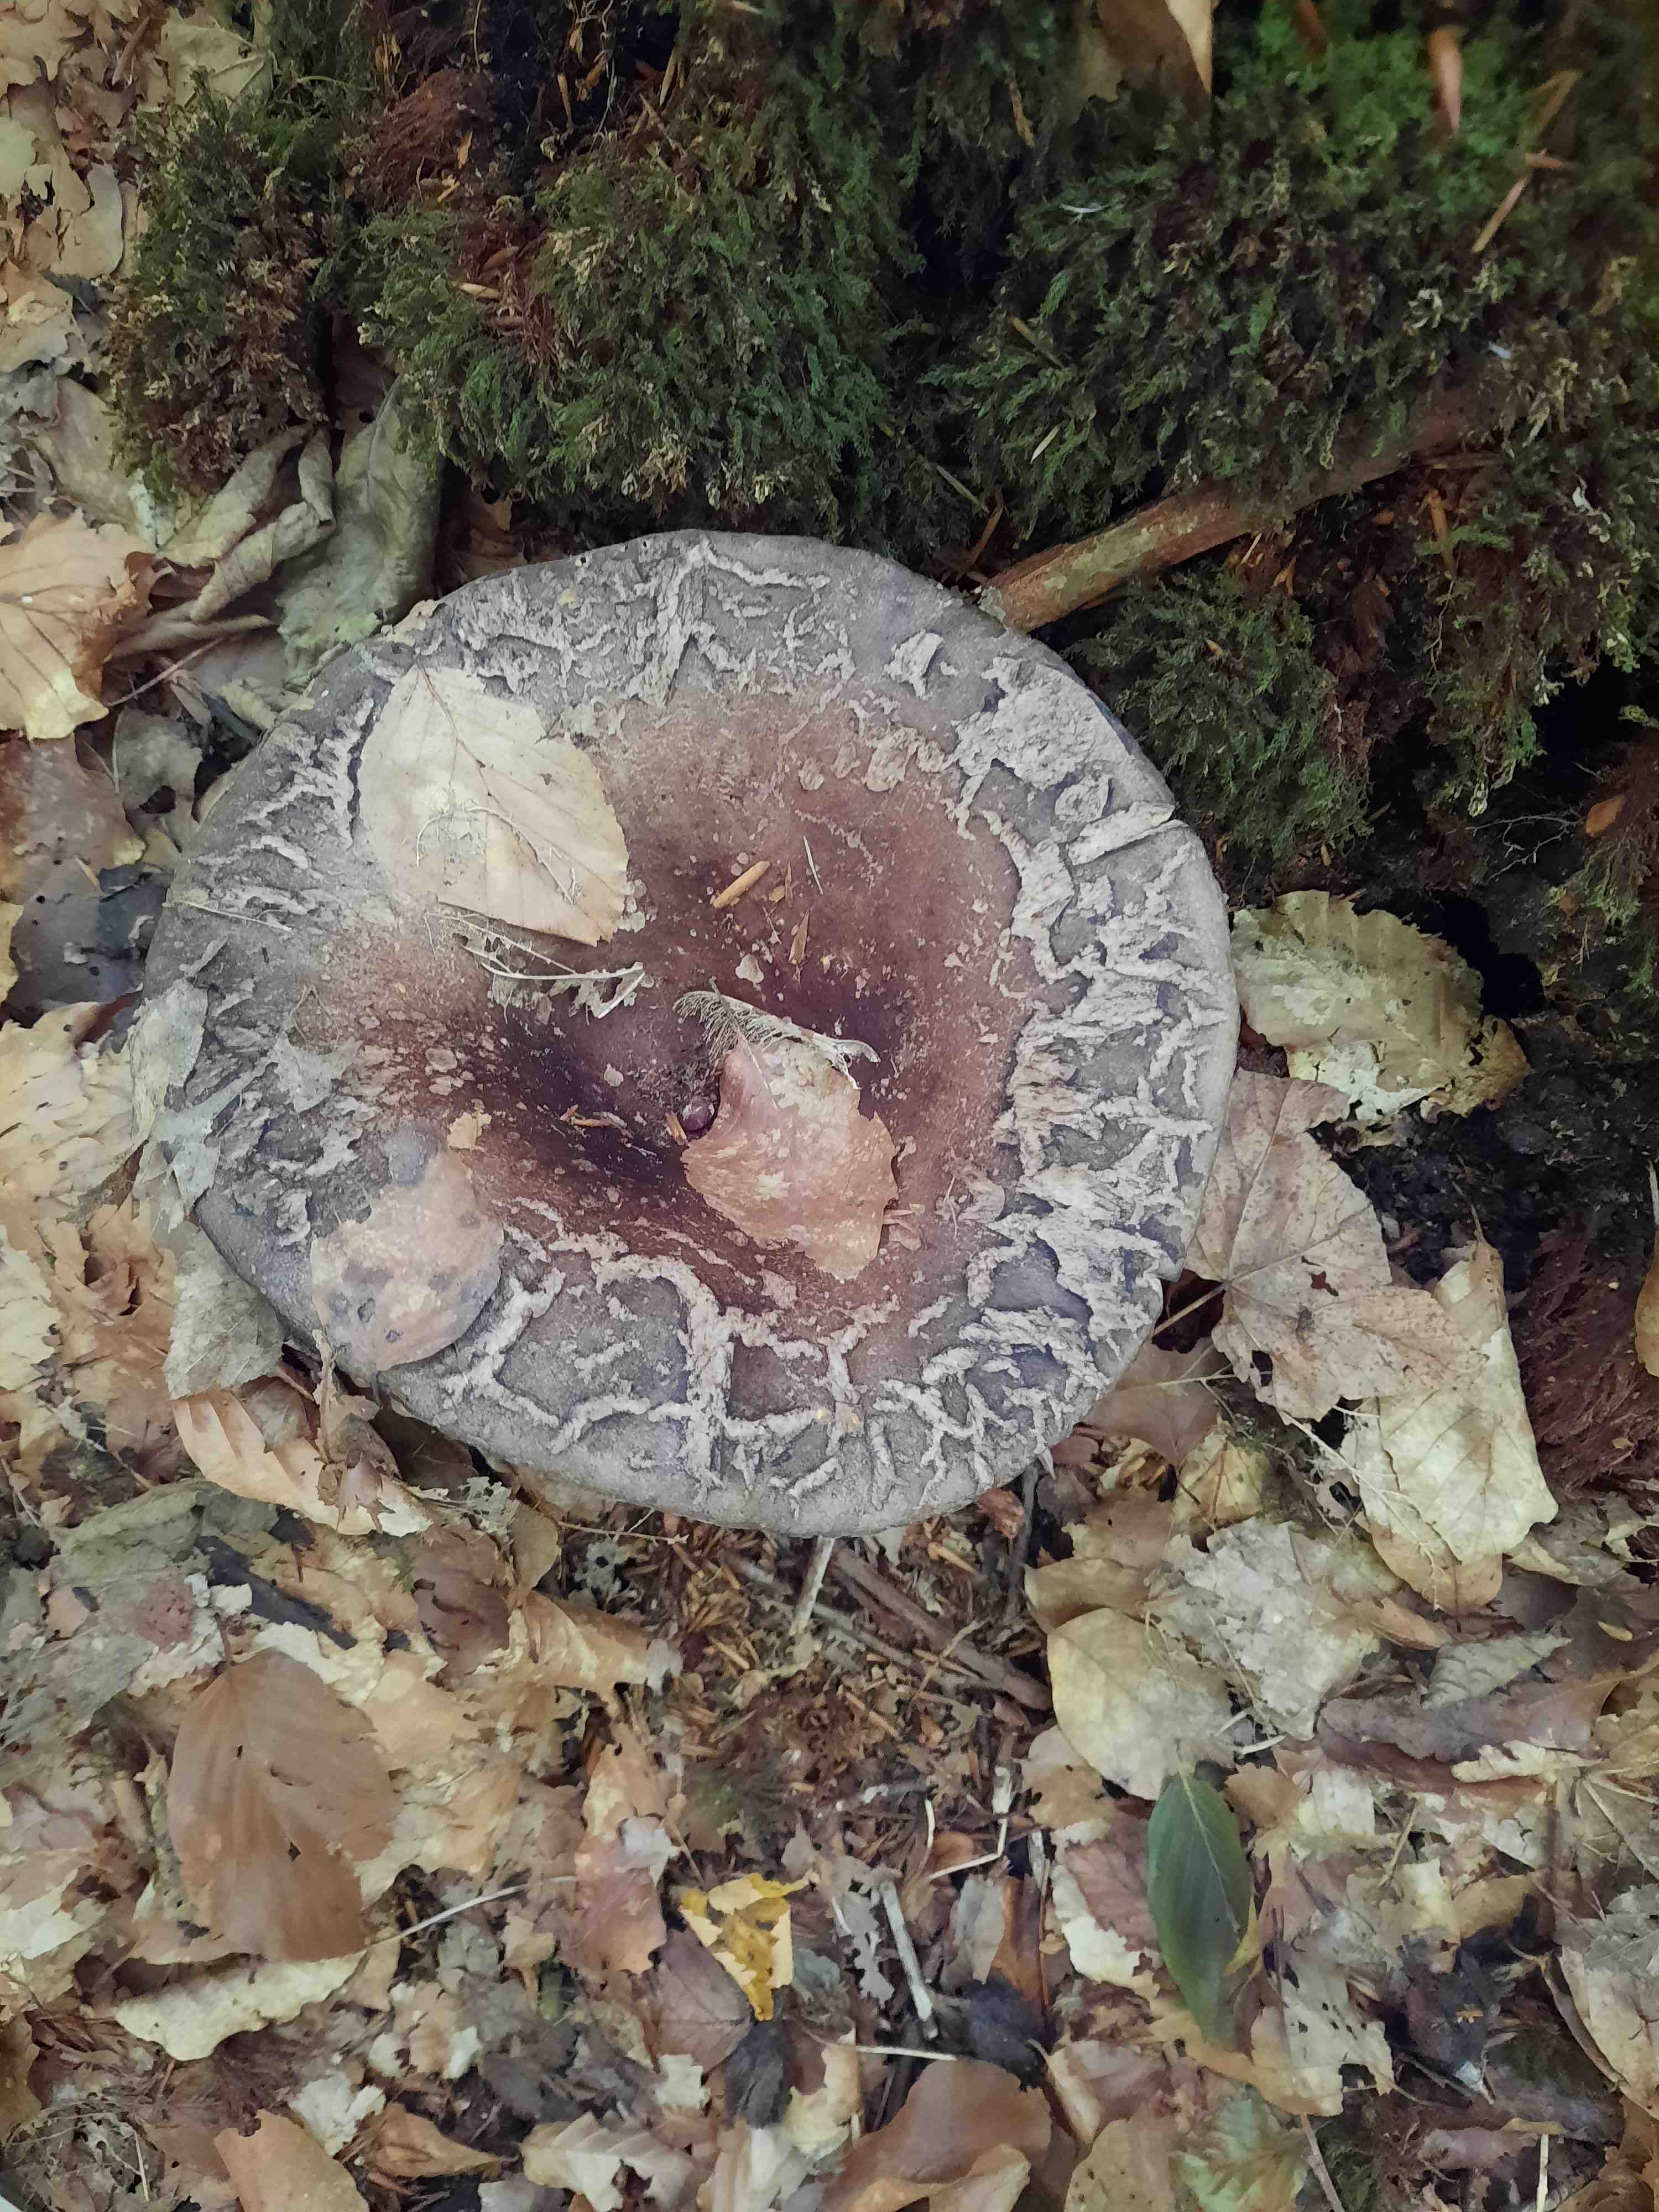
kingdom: Fungi
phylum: Basidiomycota
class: Agaricomycetes
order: Russulales
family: Russulaceae
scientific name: Russulaceae
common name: skørhatfamilien
